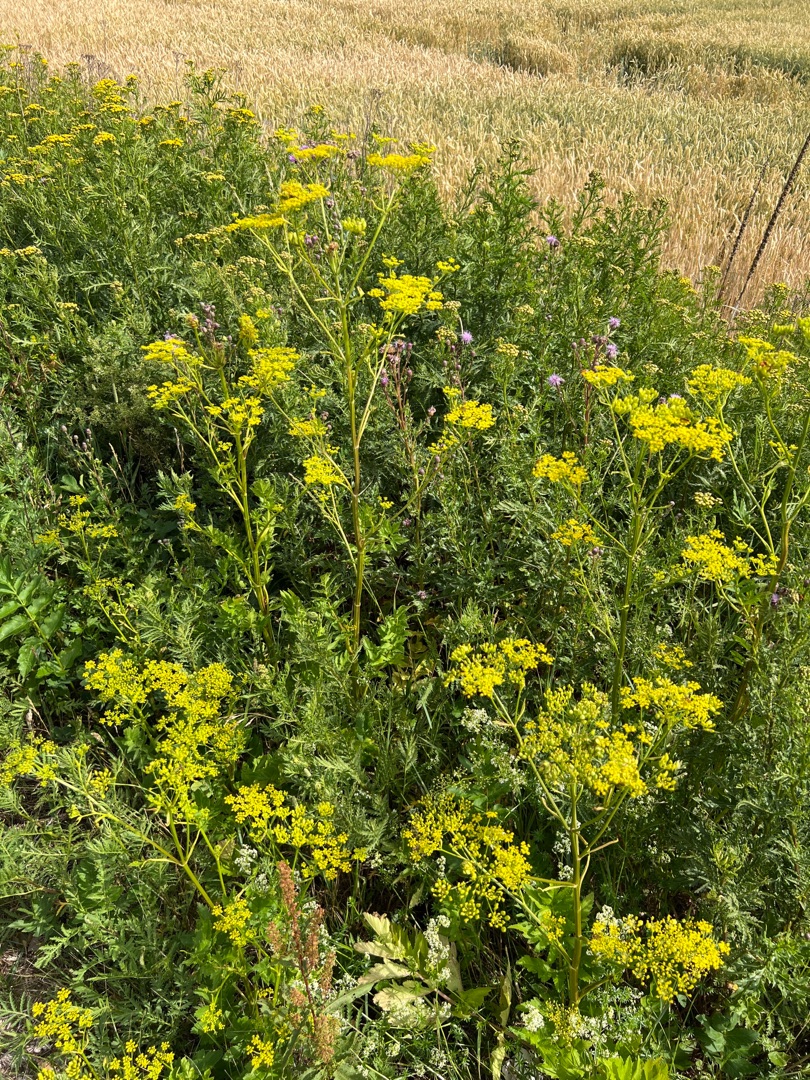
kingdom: Plantae
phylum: Tracheophyta
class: Magnoliopsida
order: Apiales
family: Apiaceae
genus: Pastinaca
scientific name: Pastinaca sativa
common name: Vild pastinak
